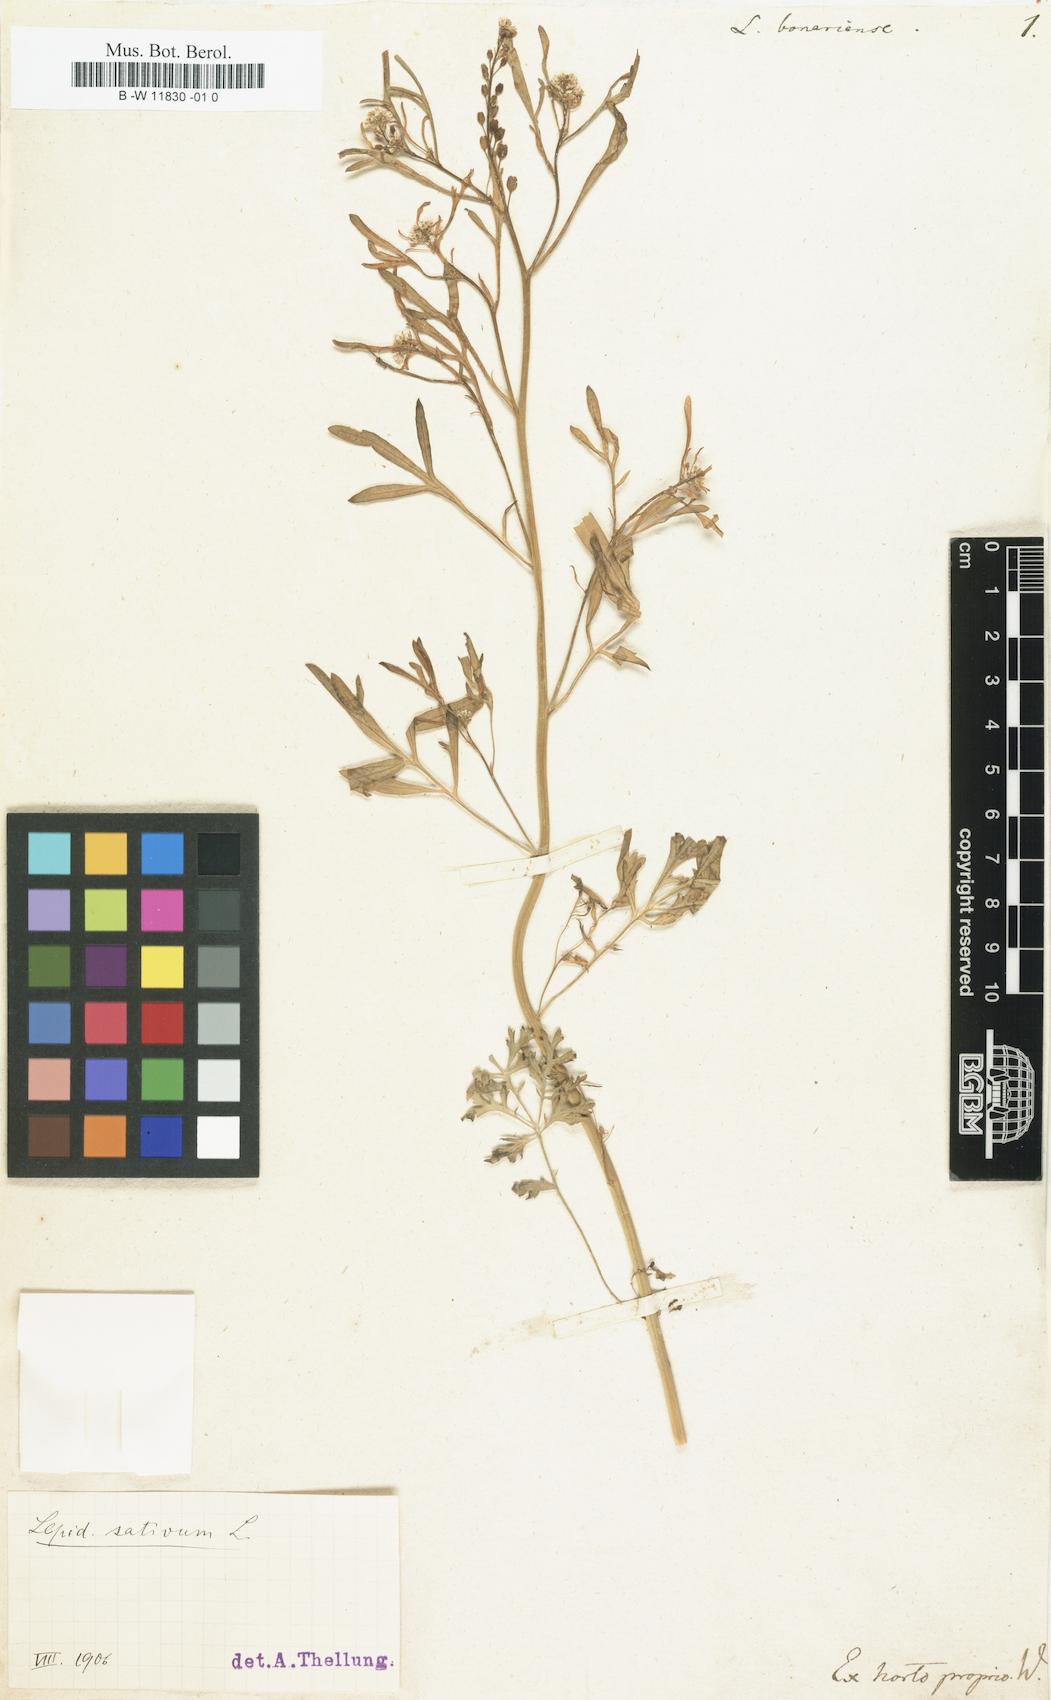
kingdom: Plantae
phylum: Tracheophyta
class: Magnoliopsida
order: Brassicales
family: Brassicaceae
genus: Lepidium
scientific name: Lepidium bonariense
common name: Argentine pepperwort
